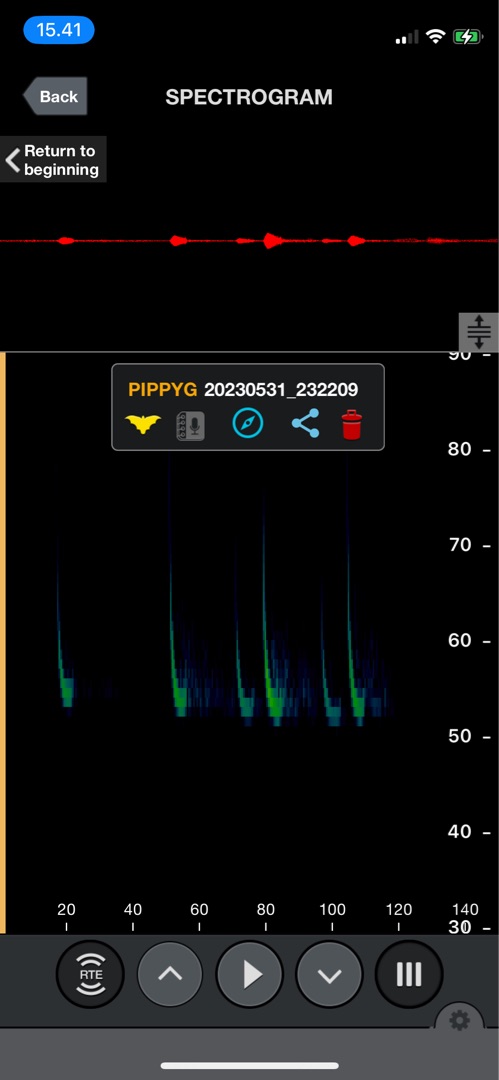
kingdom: Animalia
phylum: Chordata
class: Mammalia
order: Chiroptera
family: Vespertilionidae
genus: Pipistrellus
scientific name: Pipistrellus pygmaeus
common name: Dværgflagermus
